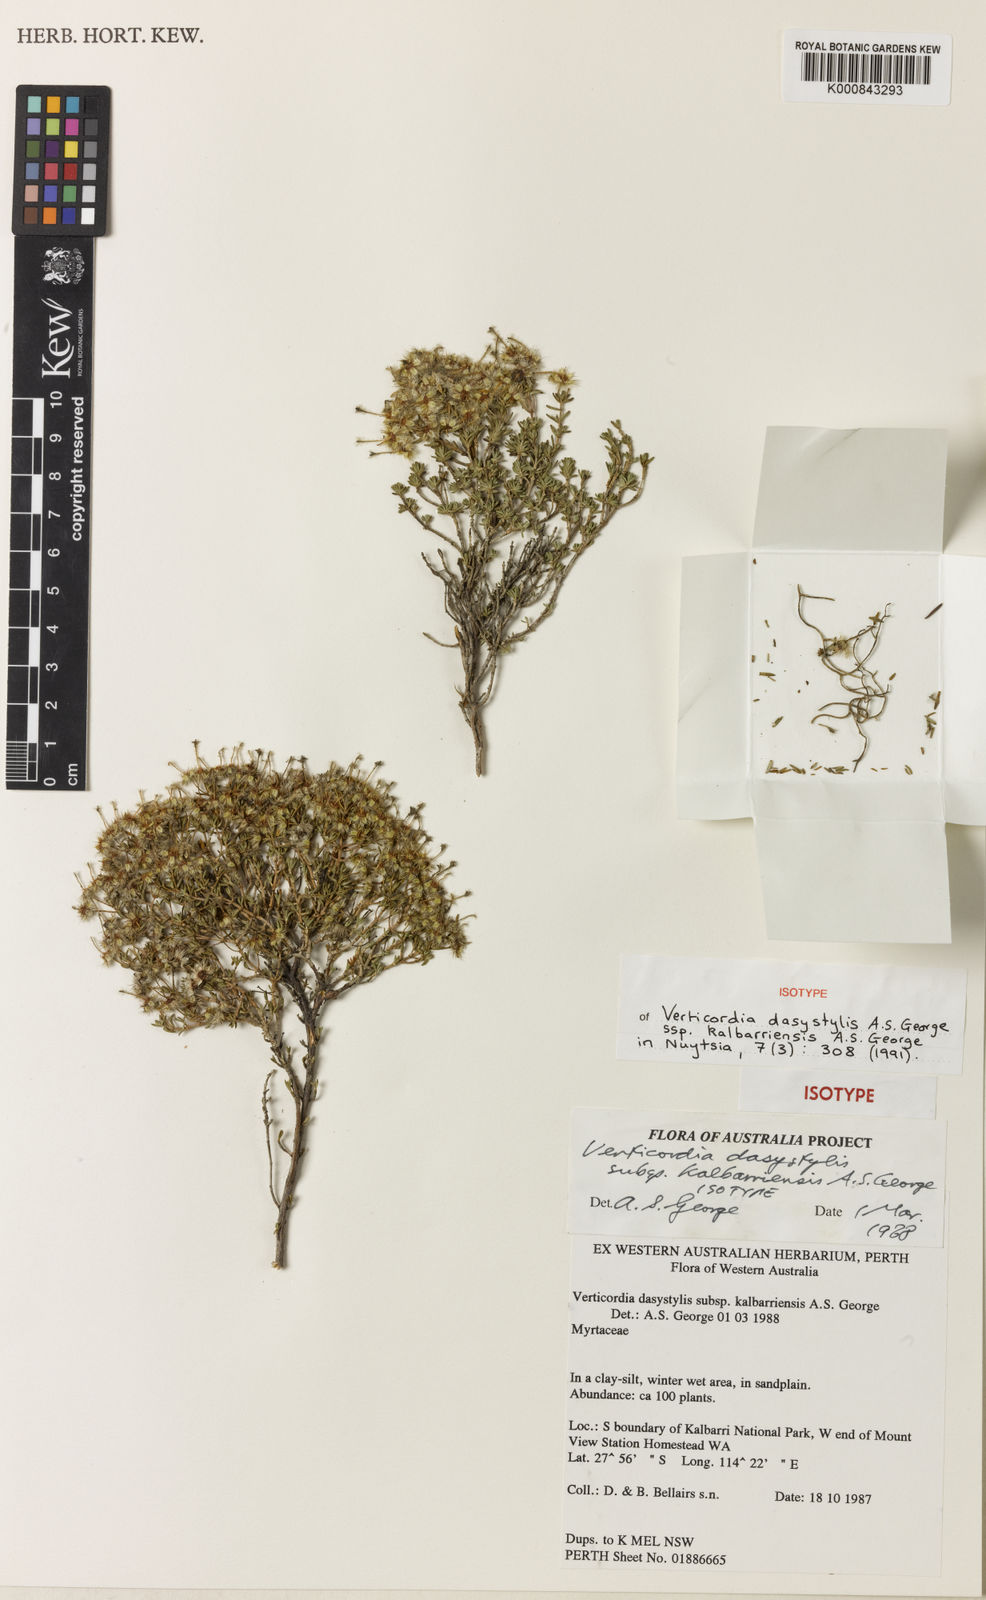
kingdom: Plantae
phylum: Tracheophyta
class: Magnoliopsida
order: Myrtales
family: Myrtaceae
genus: Verticordia
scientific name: Verticordia dasystylis
